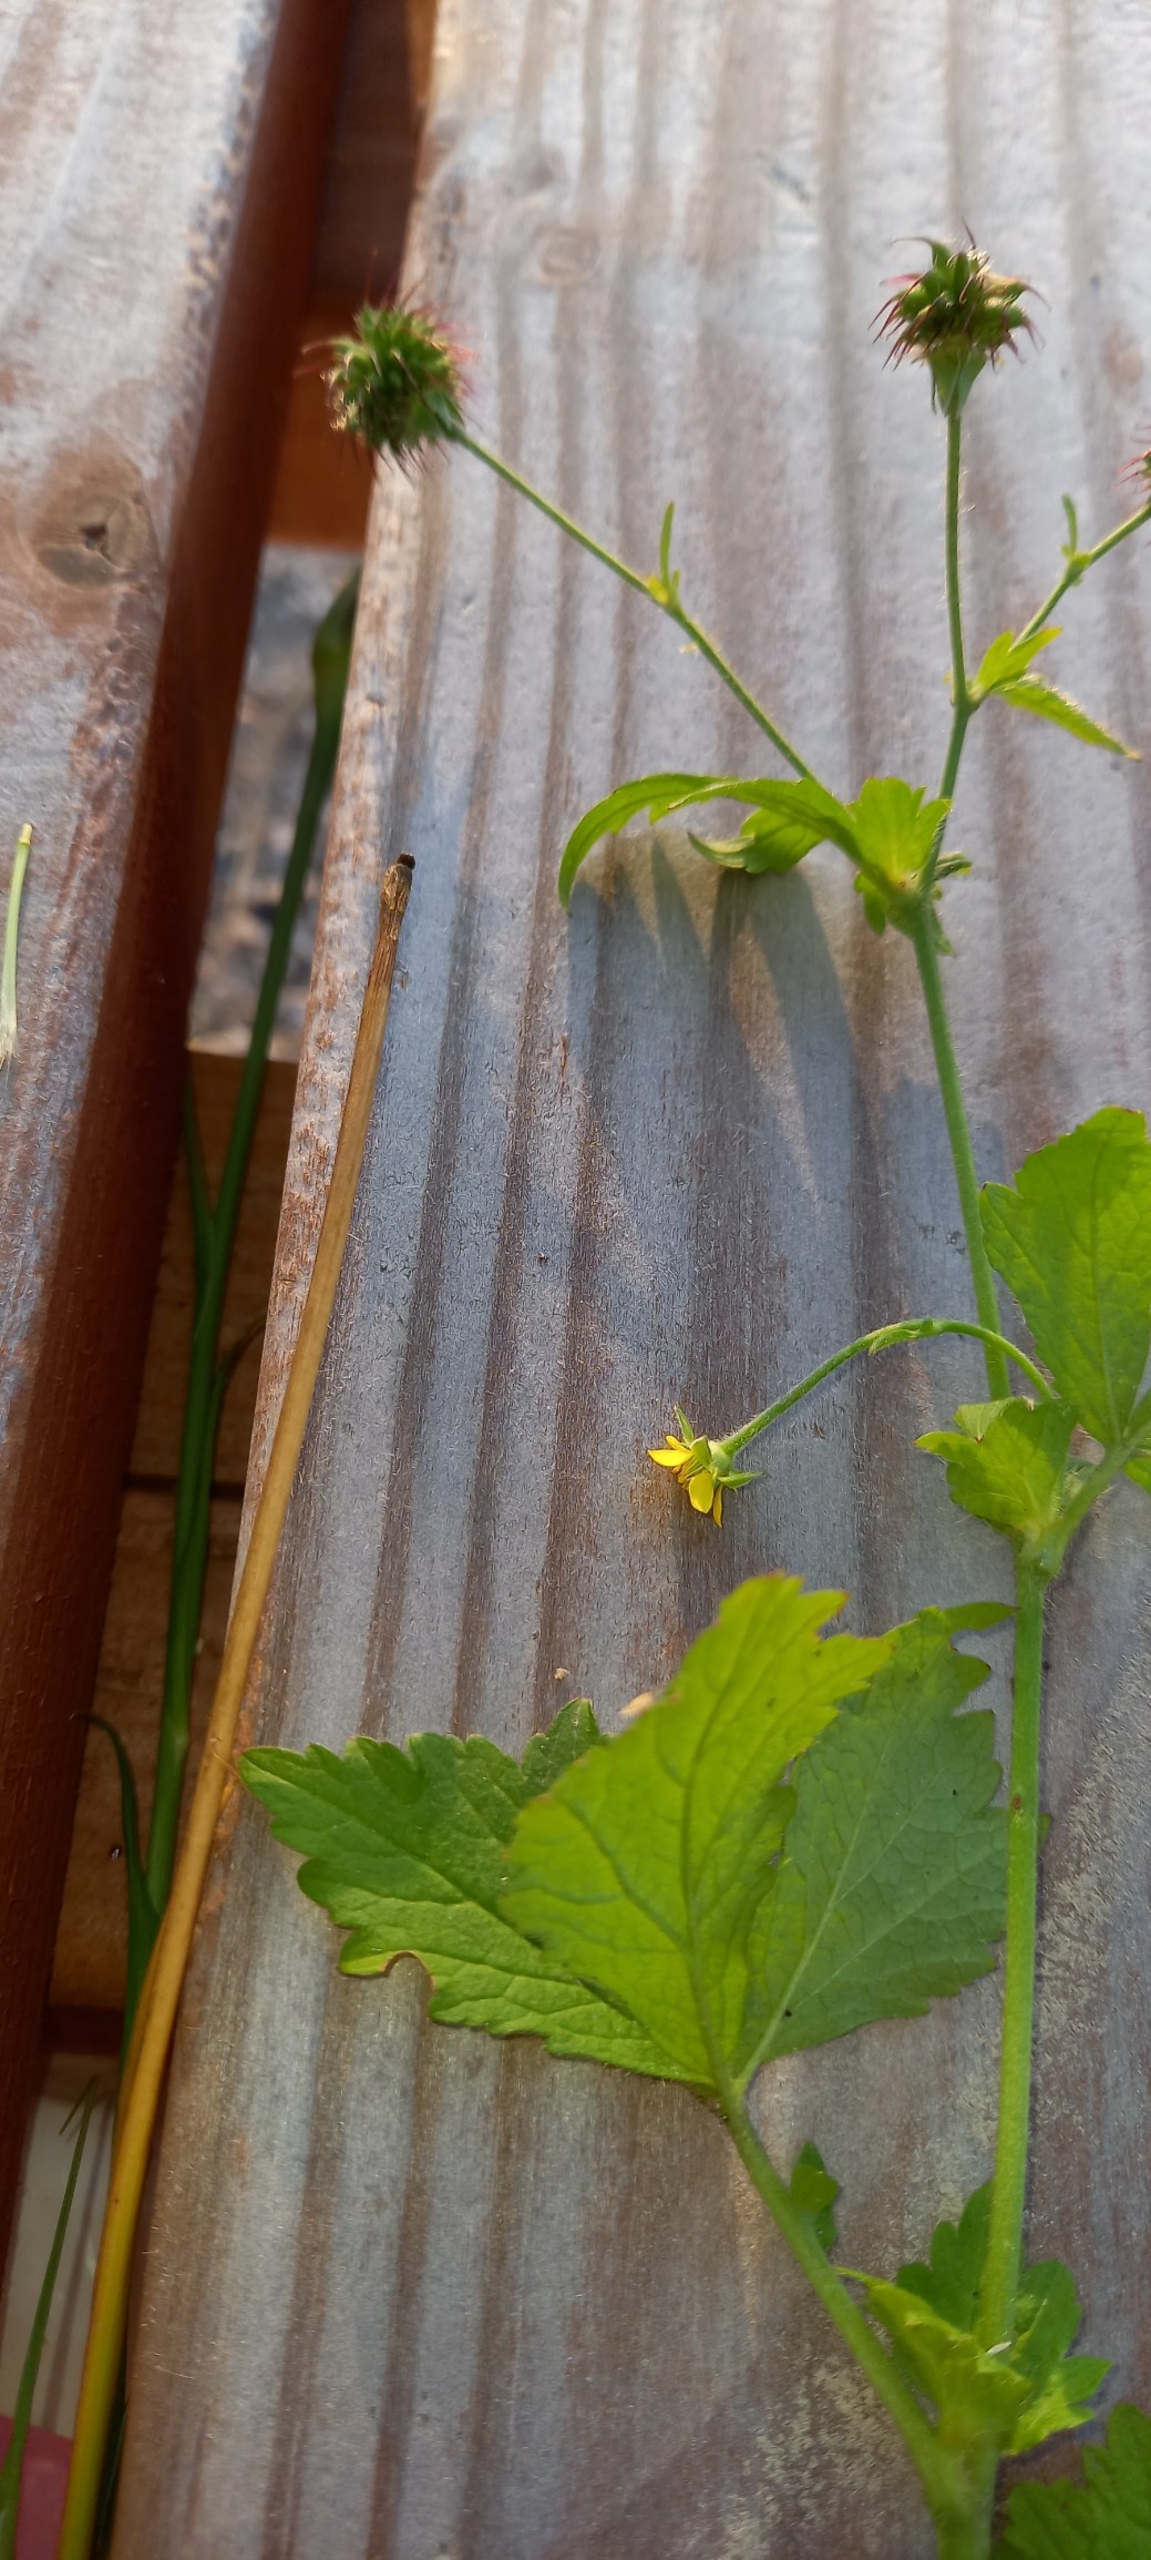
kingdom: Plantae
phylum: Tracheophyta
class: Magnoliopsida
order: Rosales
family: Rosaceae
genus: Geum
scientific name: Geum urbanum
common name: Feber-nellikerod
